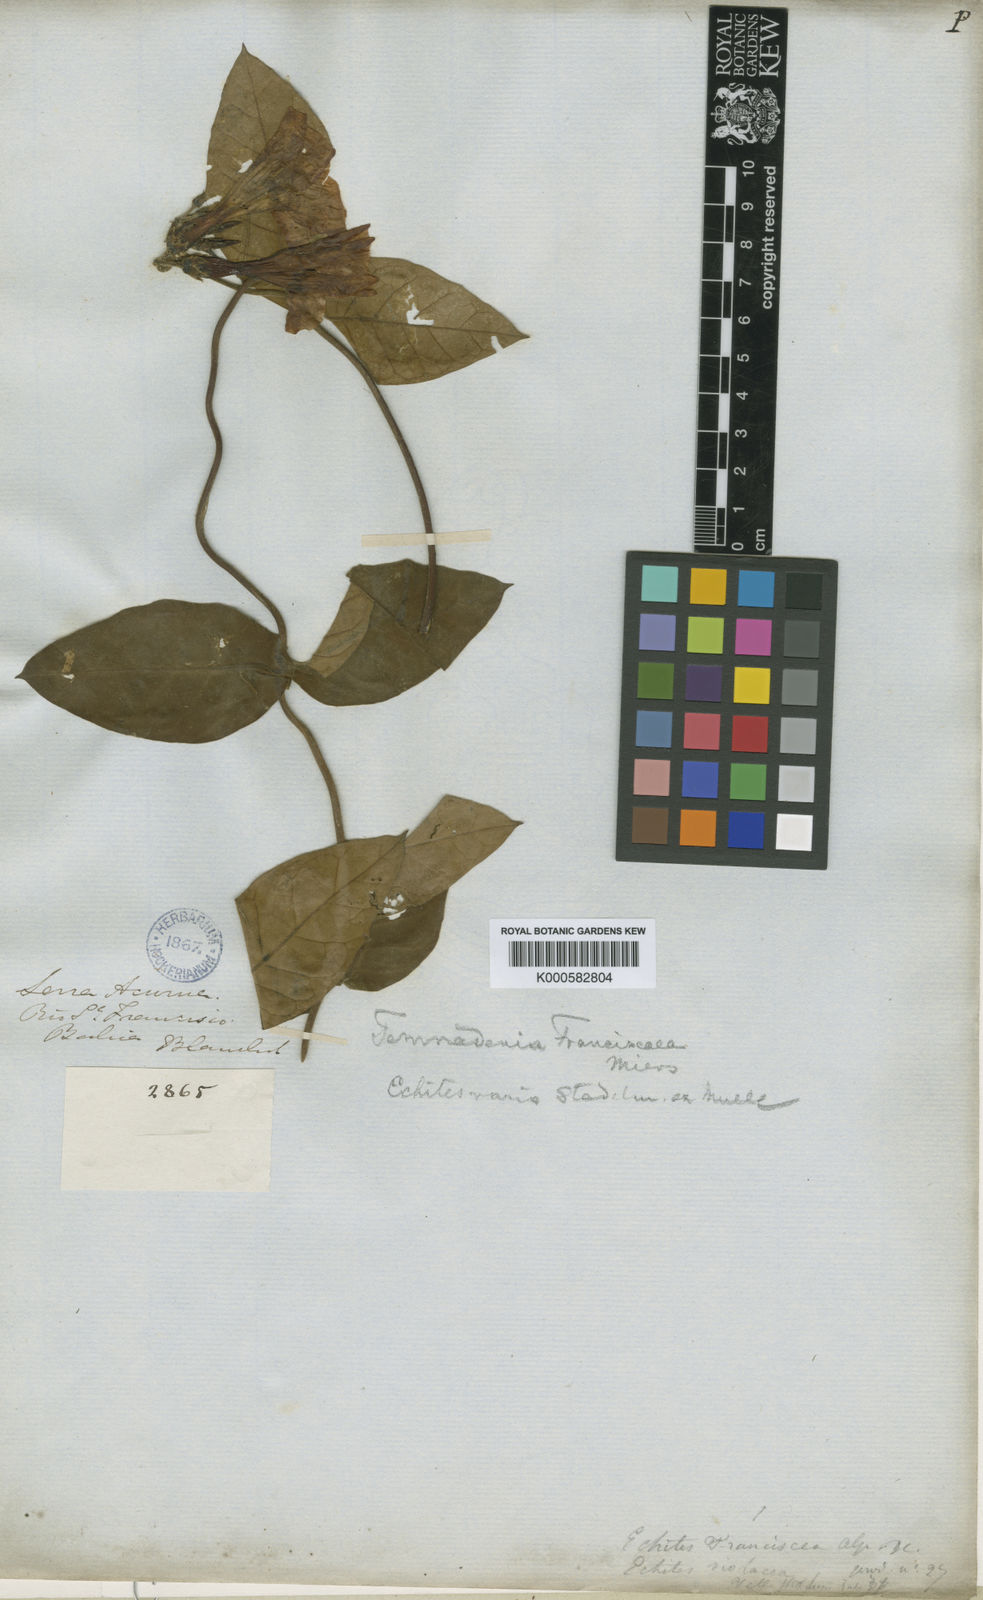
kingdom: Plantae
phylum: Tracheophyta
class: Magnoliopsida
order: Gentianales
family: Apocynaceae
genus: Temnadenia
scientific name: Temnadenia violacea
